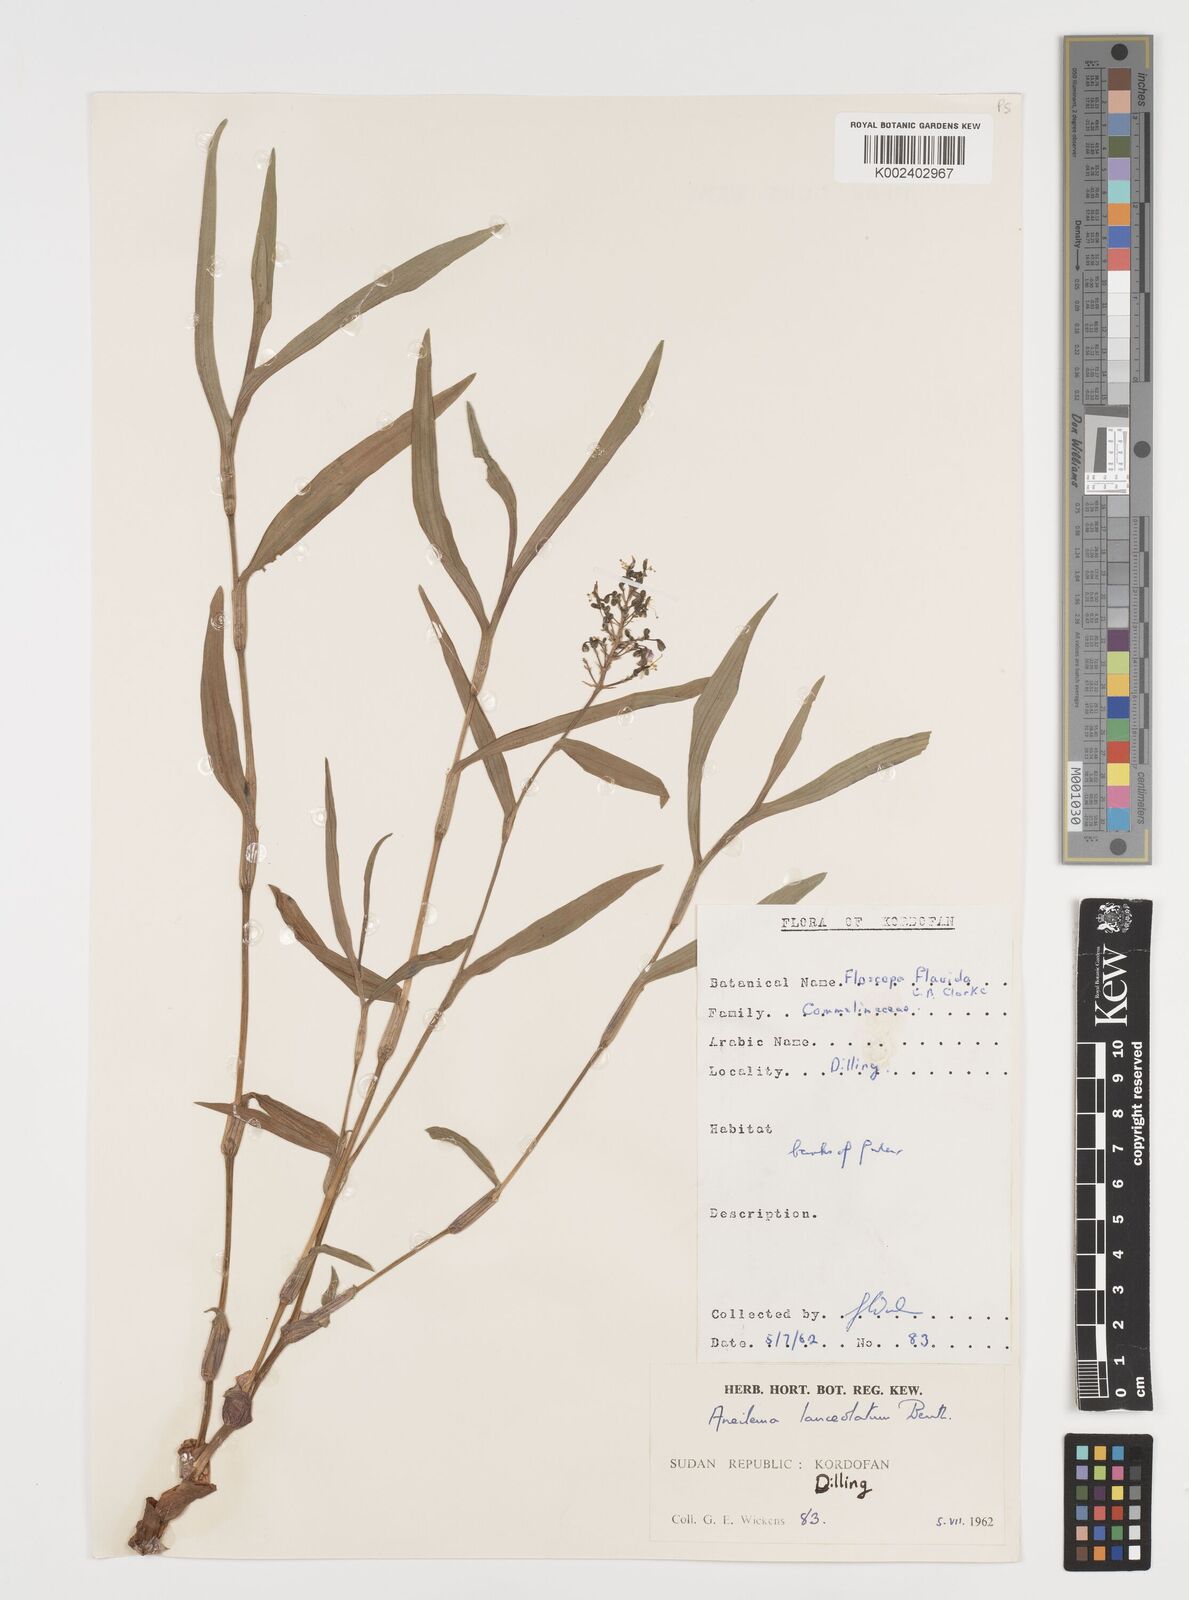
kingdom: Plantae
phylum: Tracheophyta
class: Liliopsida
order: Commelinales
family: Commelinaceae
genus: Aneilema
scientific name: Aneilema lanceolatum
